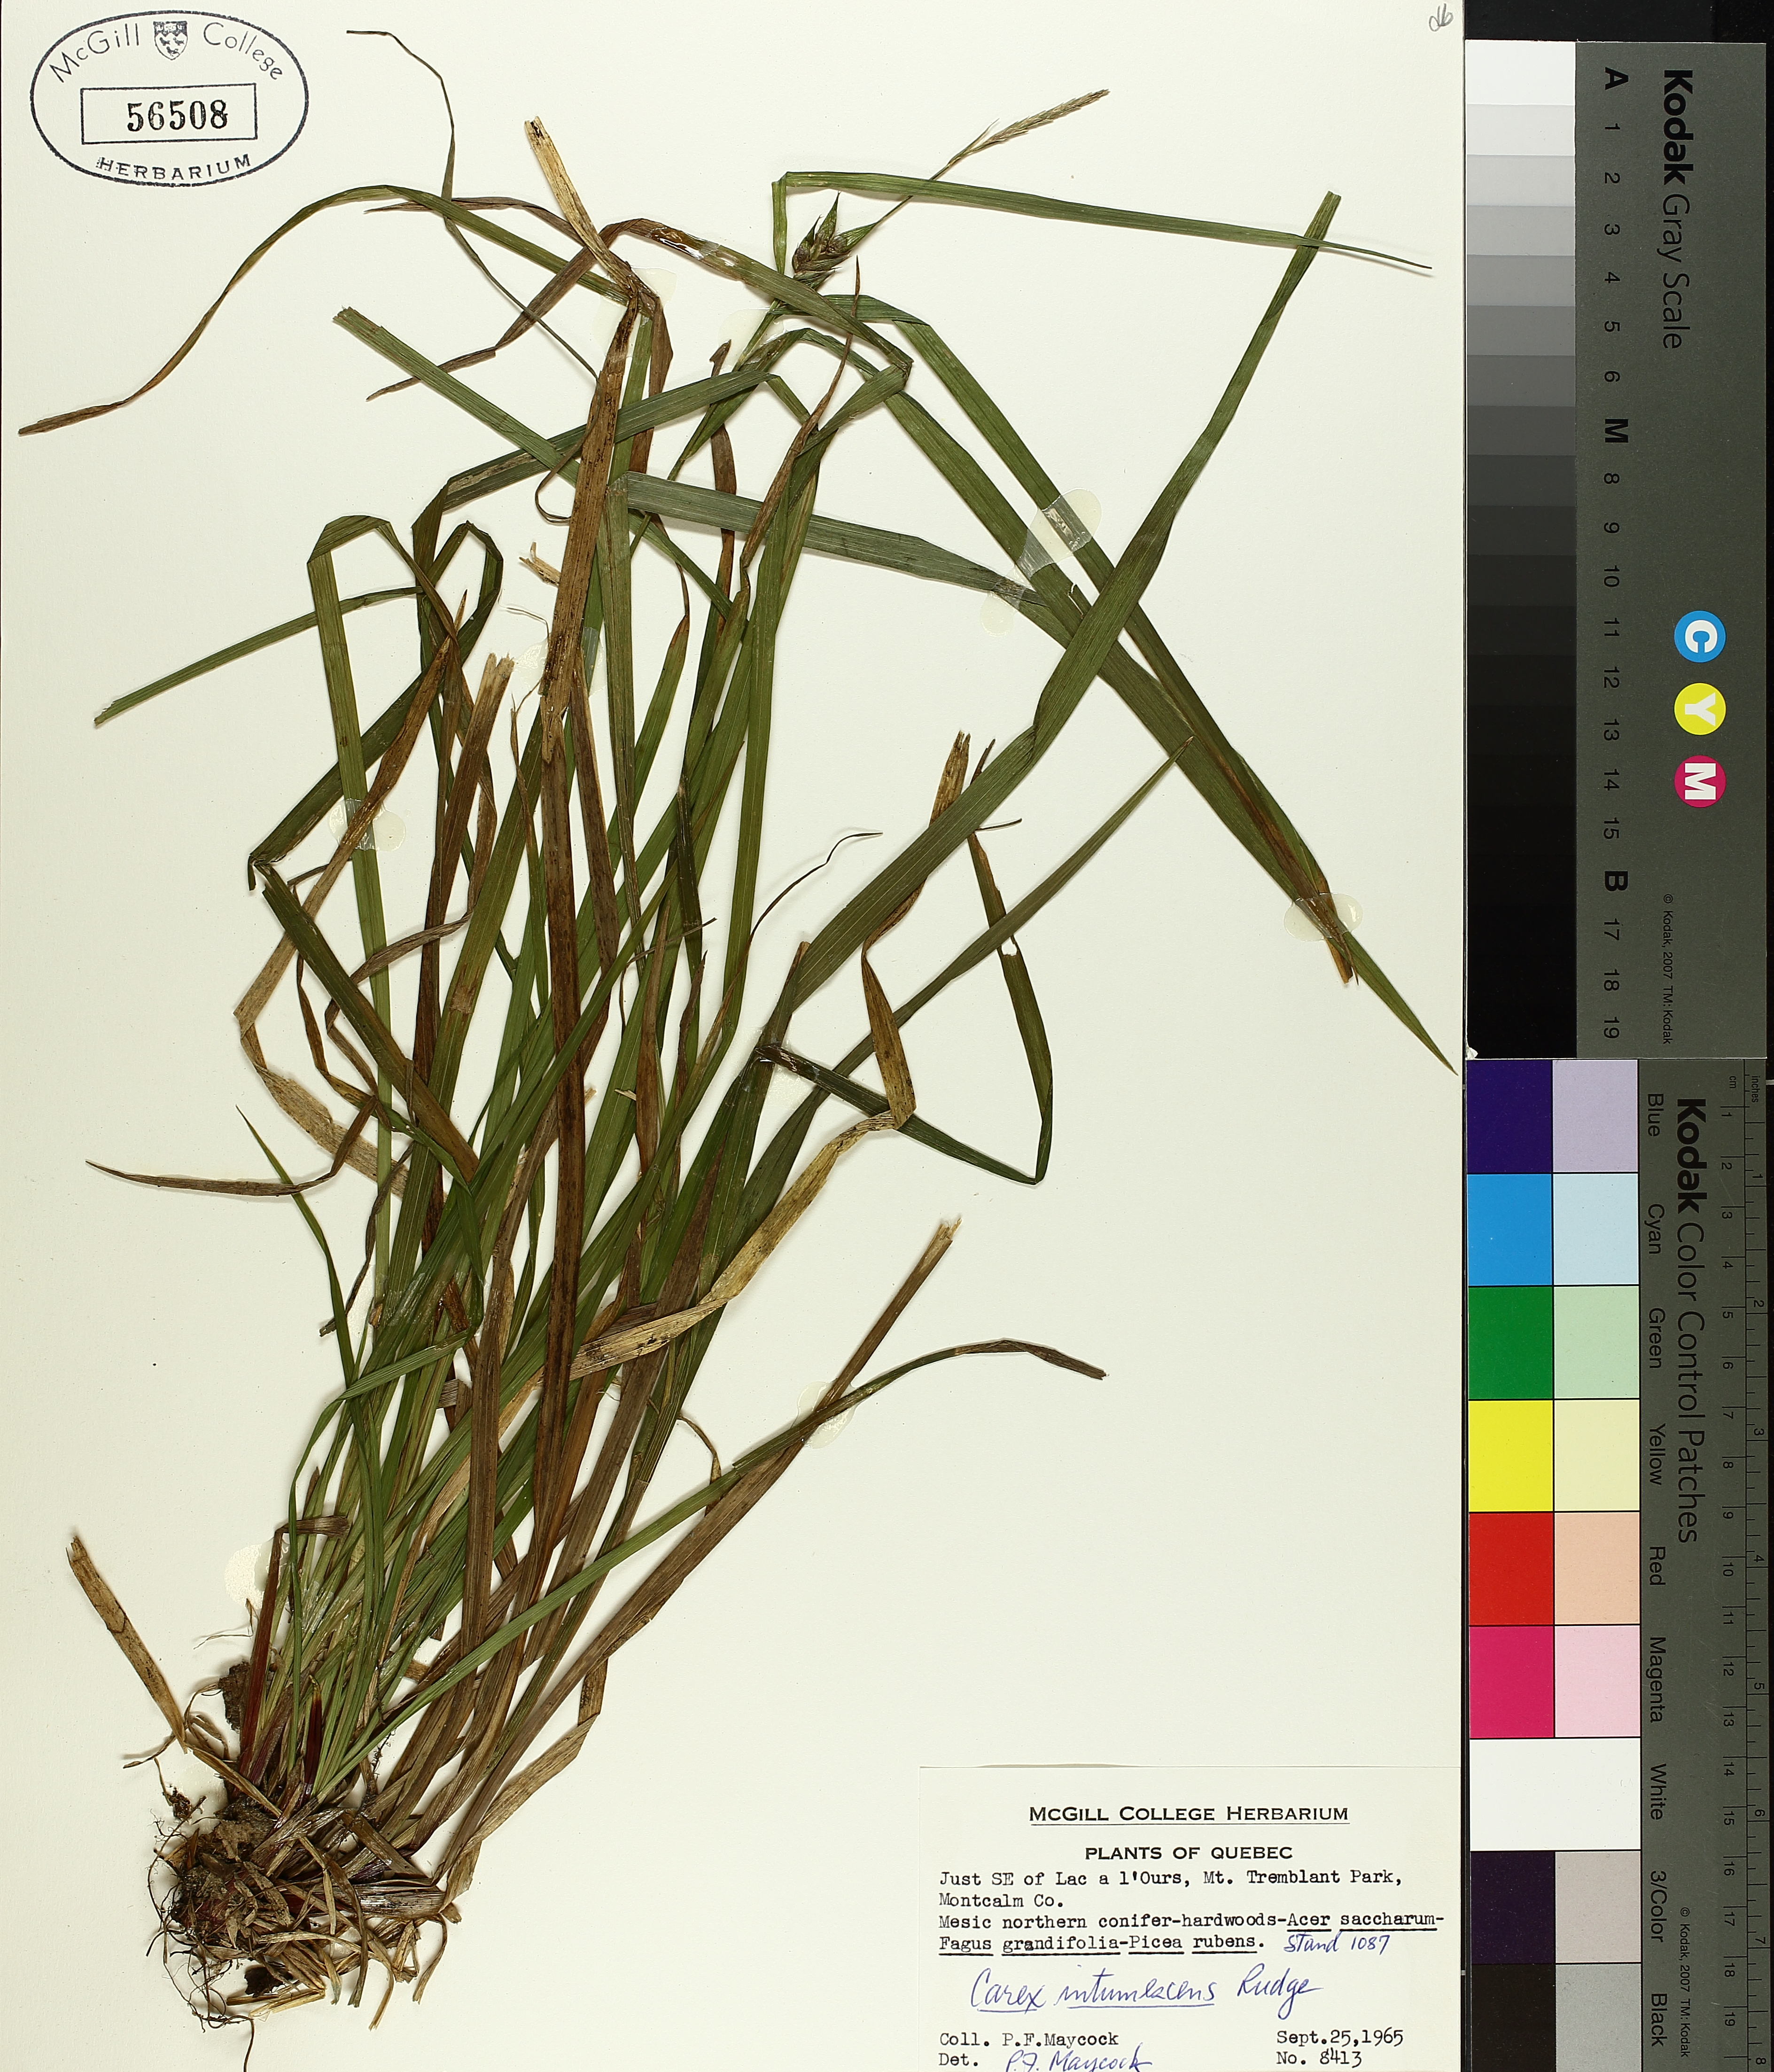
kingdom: Plantae
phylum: Tracheophyta
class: Liliopsida
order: Poales
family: Cyperaceae
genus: Carex
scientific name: Carex intumescens
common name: Greater bladder sedge
